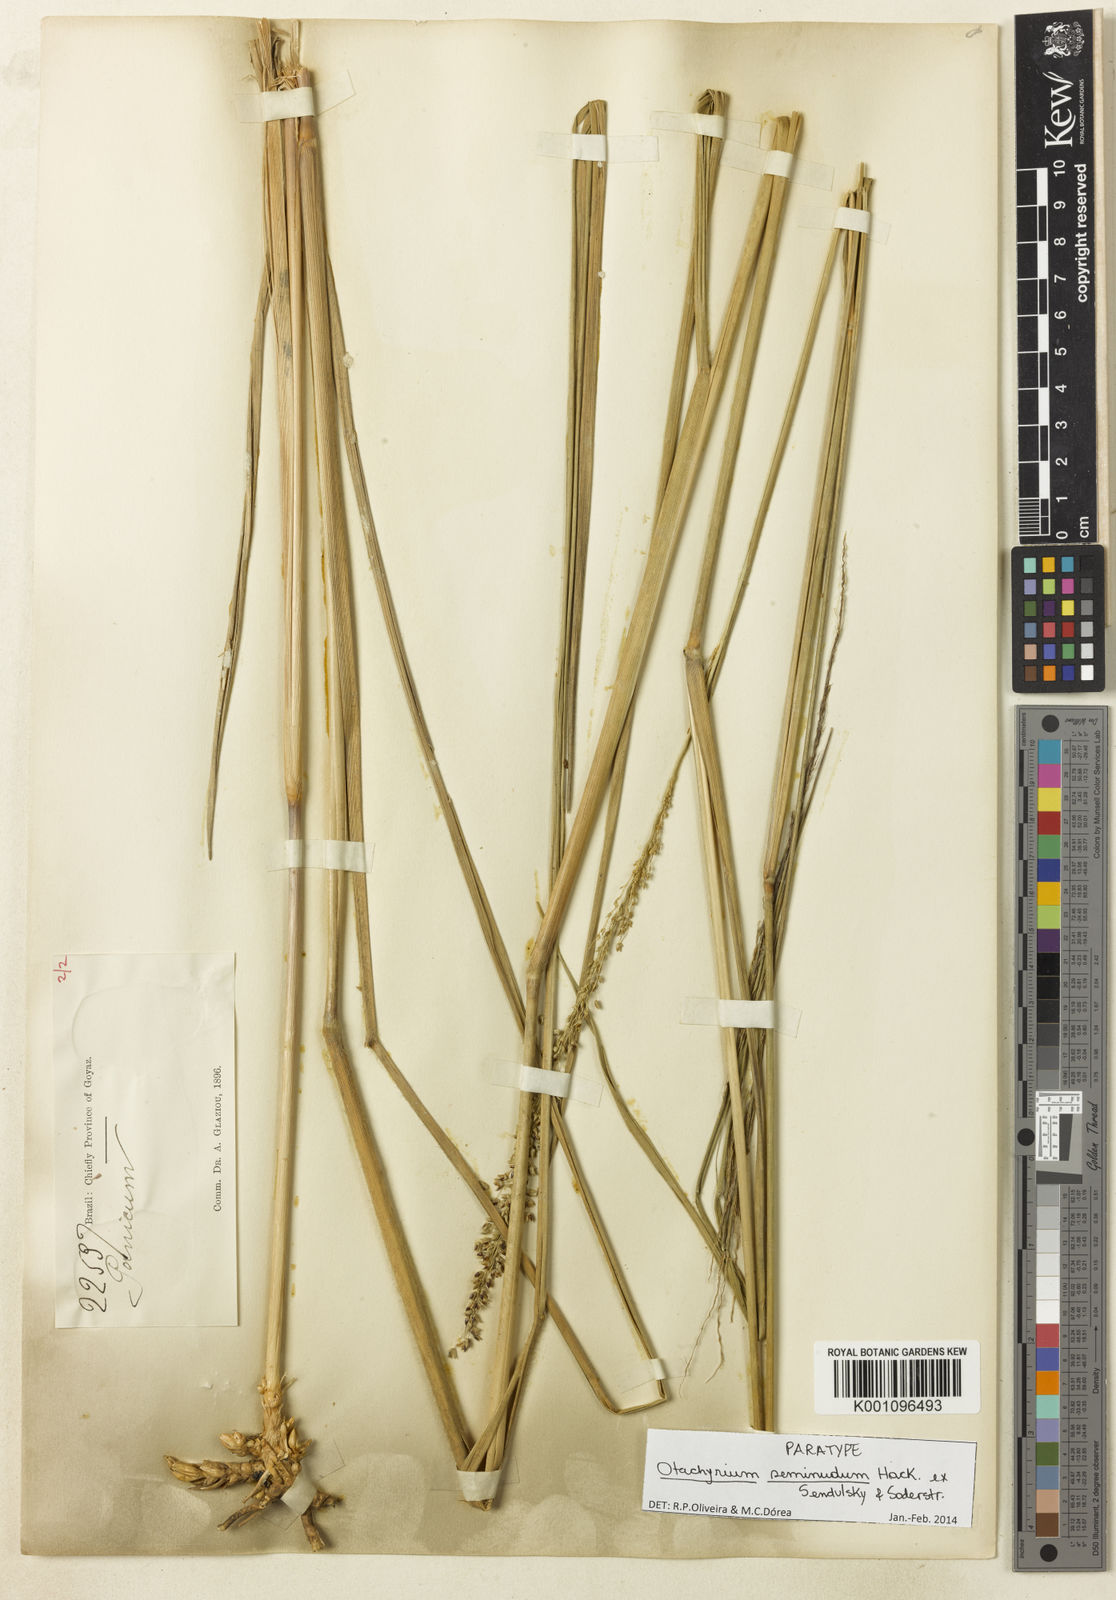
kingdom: Plantae
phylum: Tracheophyta
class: Liliopsida
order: Poales
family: Poaceae
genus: Panicum
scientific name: Panicum seminudum
